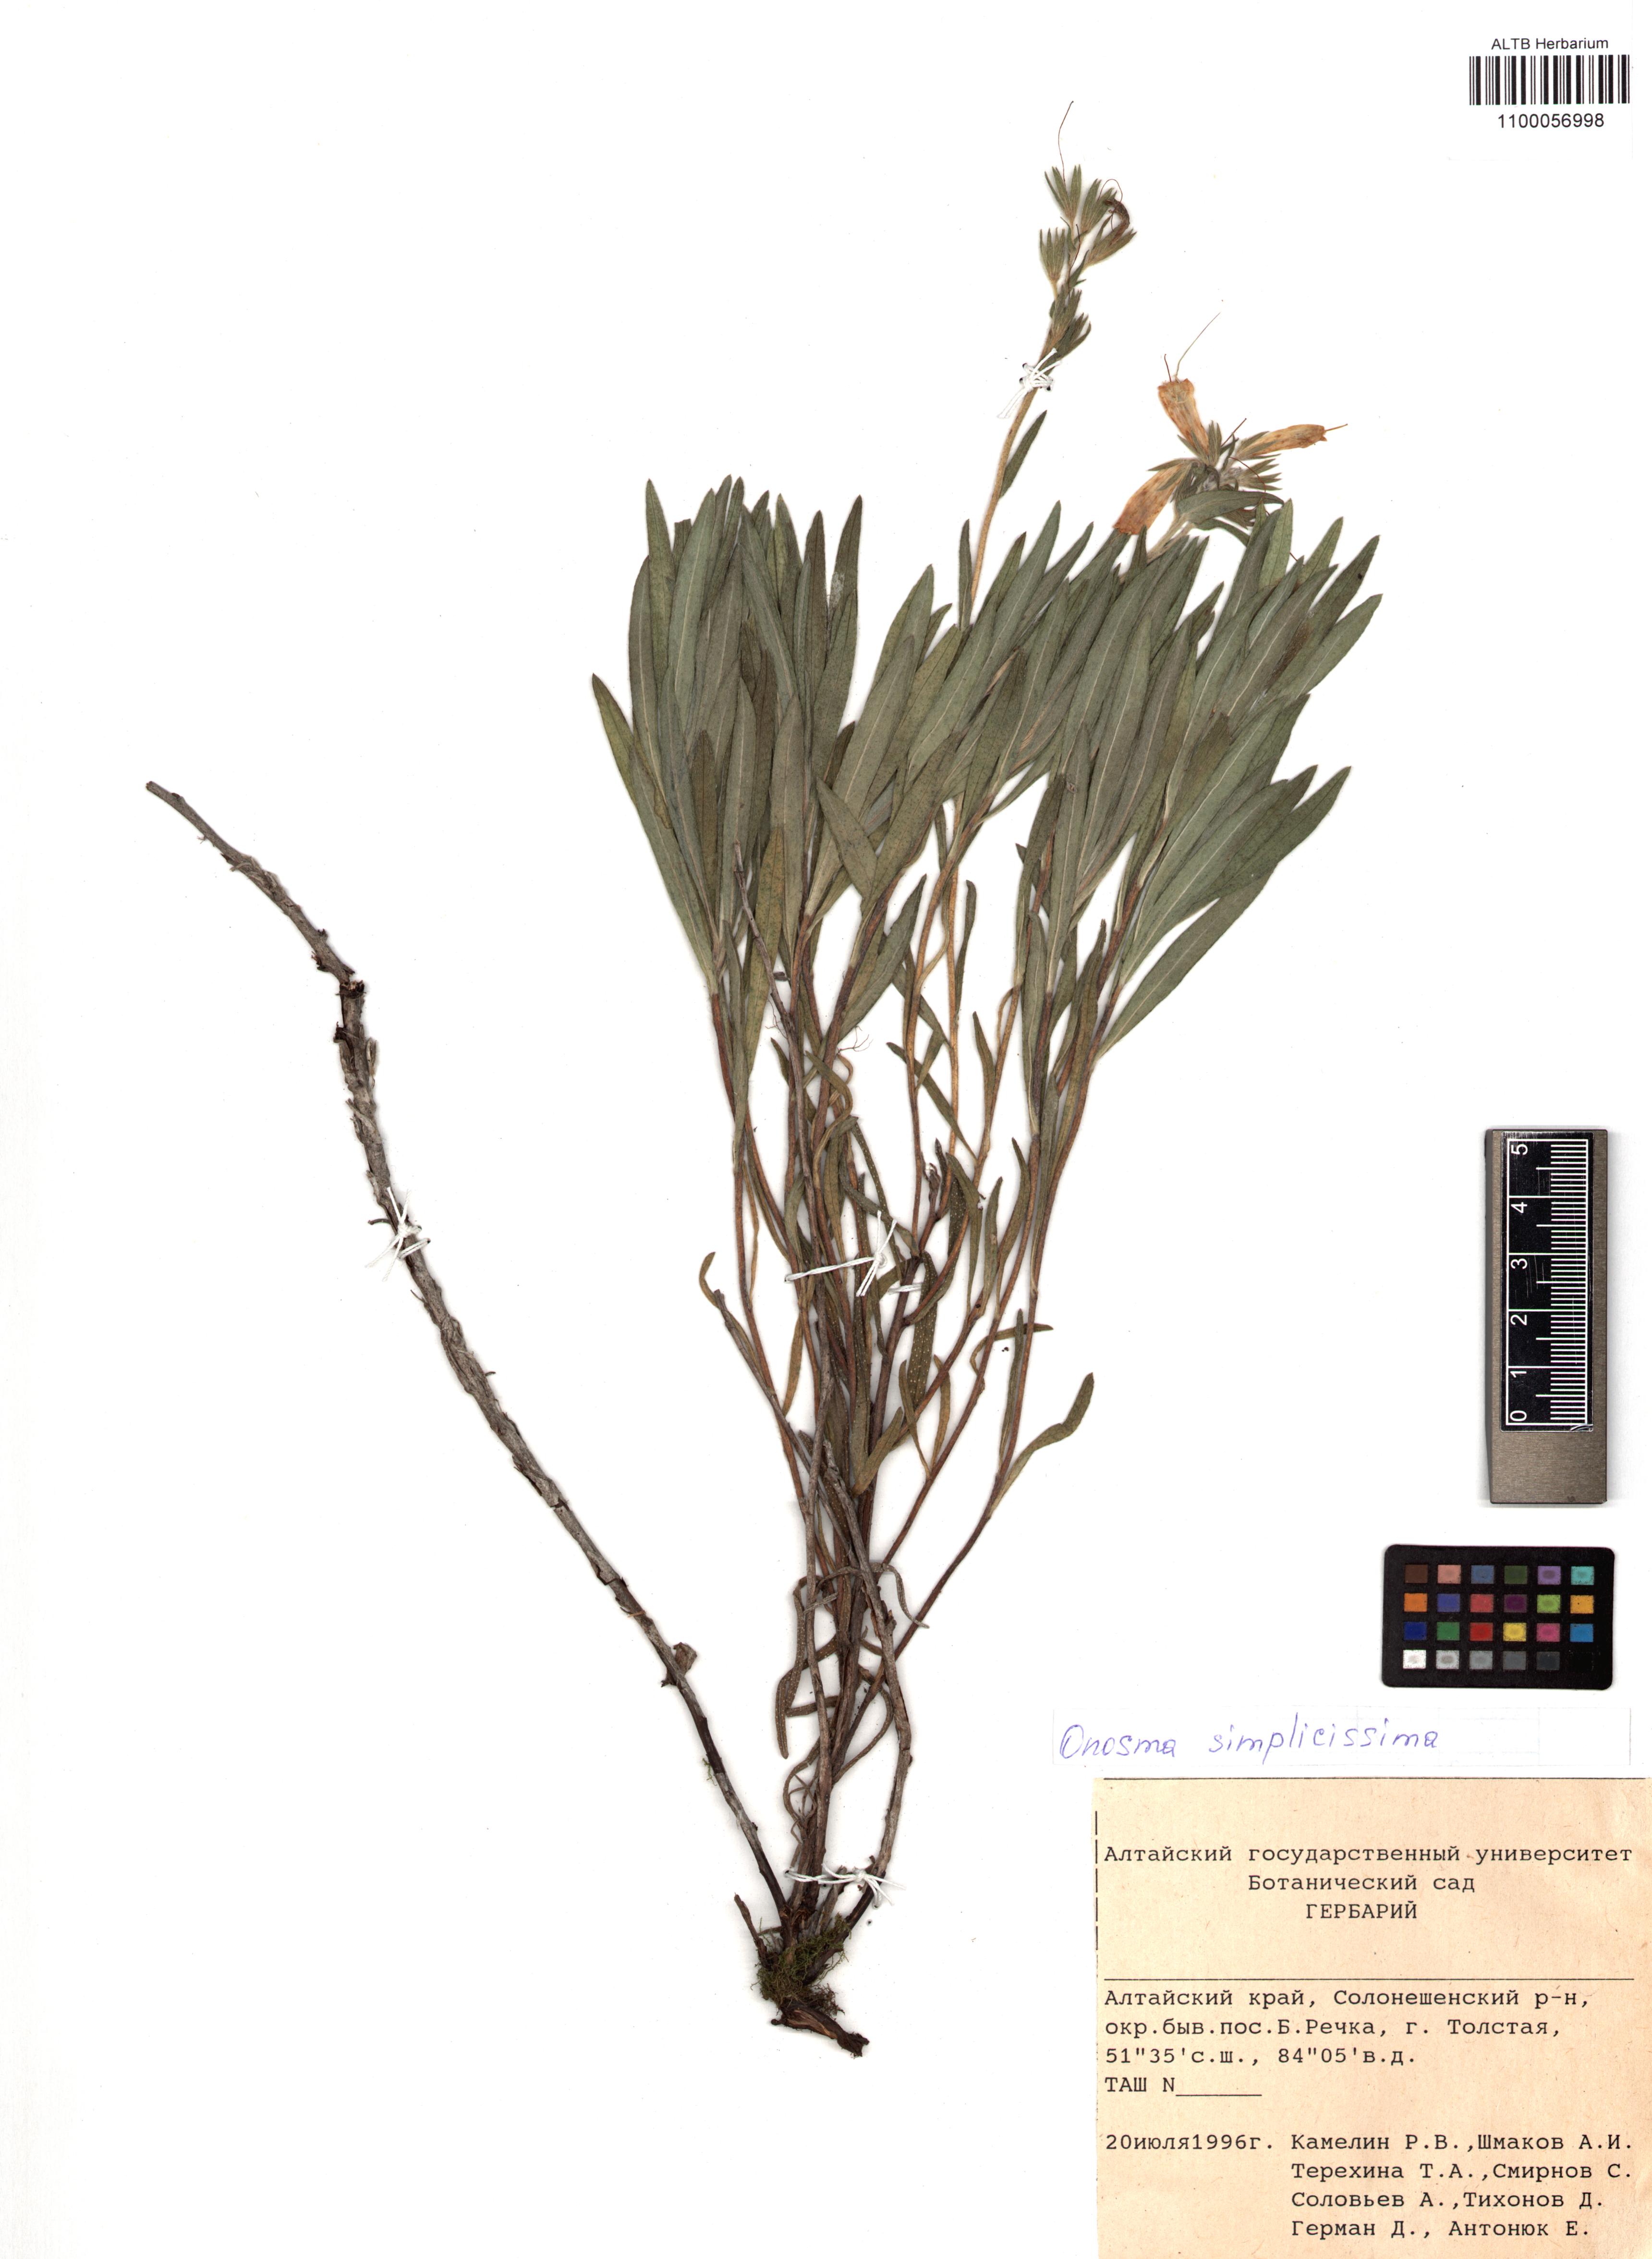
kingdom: Plantae
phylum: Tracheophyta
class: Magnoliopsida
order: Boraginales
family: Boraginaceae
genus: Onosma
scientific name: Onosma simplicissima
